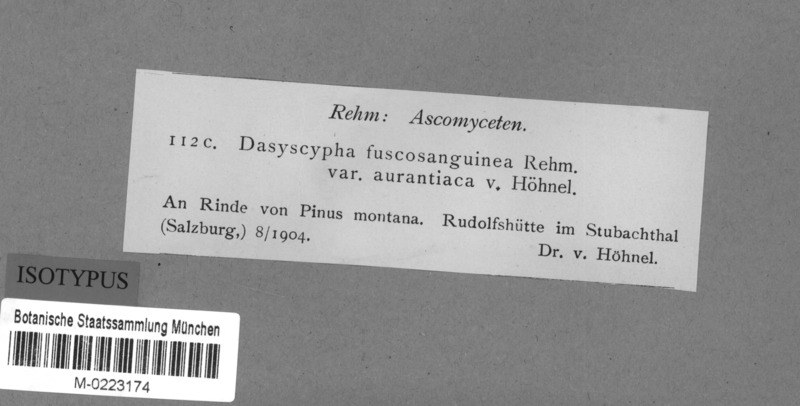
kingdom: Fungi
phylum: Ascomycota
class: Leotiomycetes
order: Helotiales
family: Lachnaceae
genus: Lachnellula
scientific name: Lachnellula fuscosanguinea
